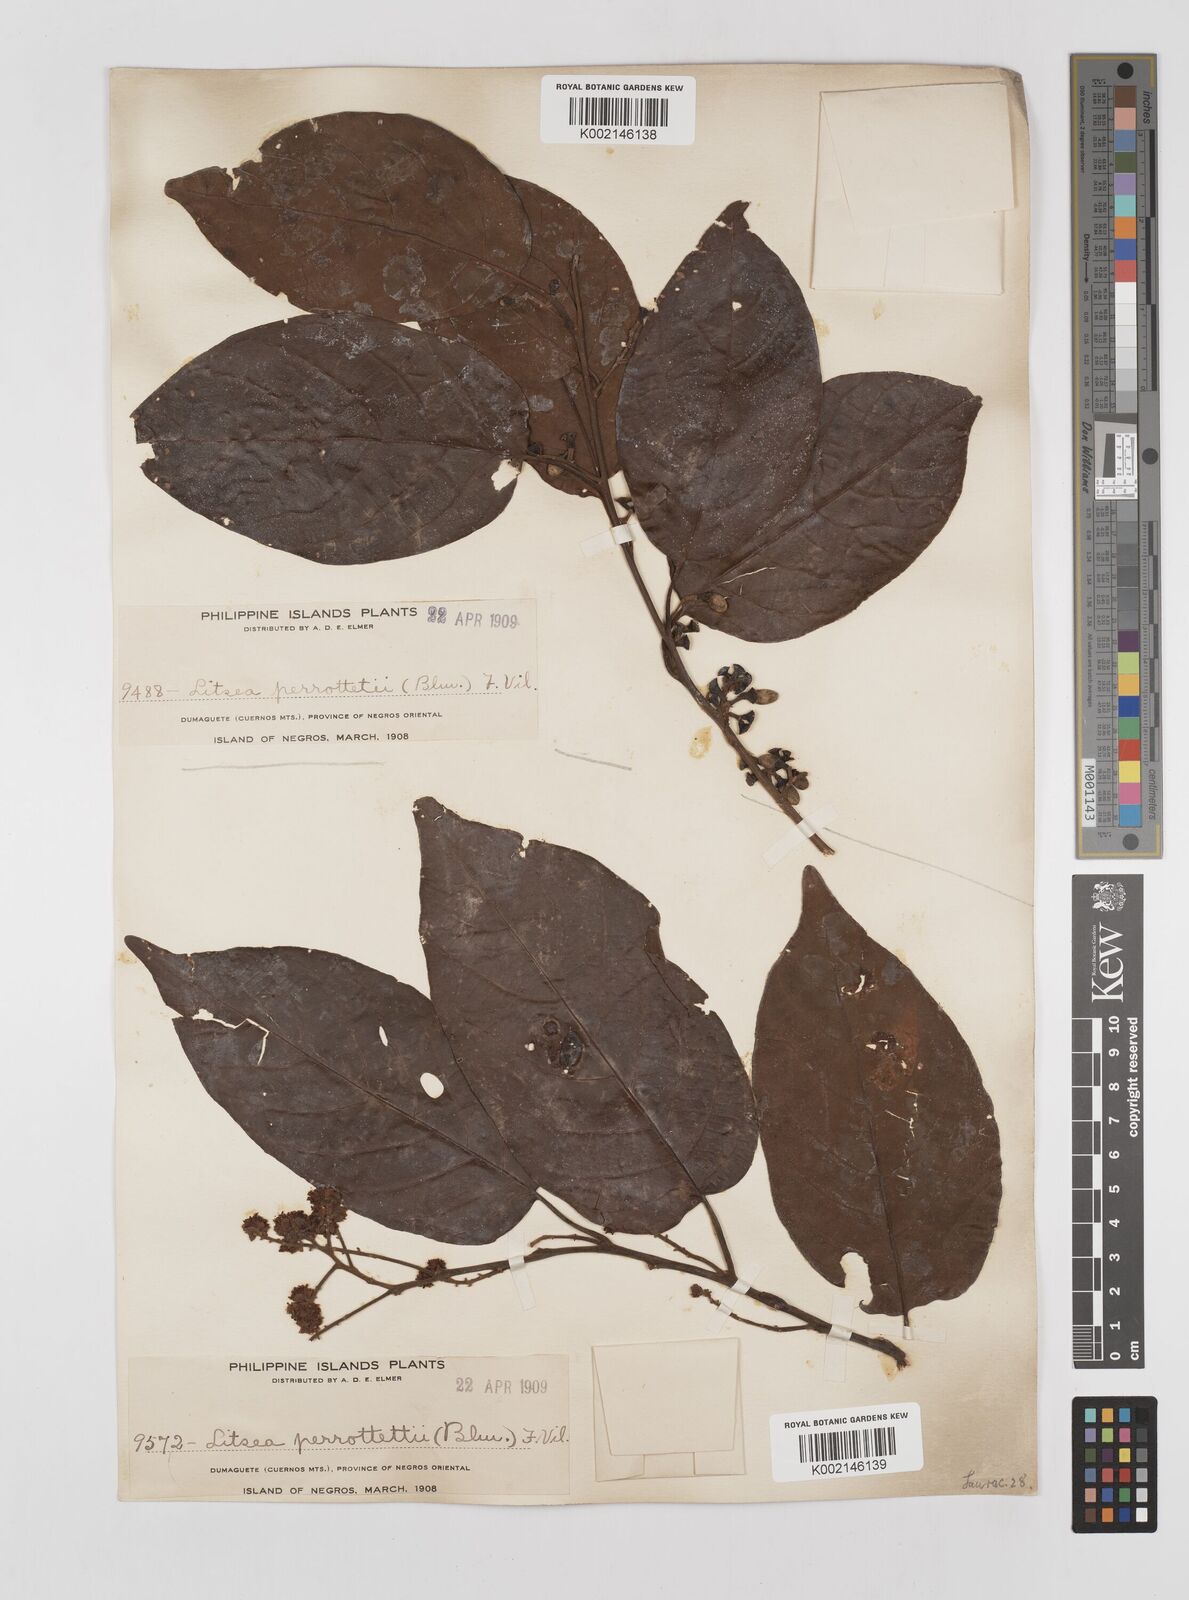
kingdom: Plantae
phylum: Tracheophyta
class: Magnoliopsida
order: Laurales
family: Lauraceae
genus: Litsea
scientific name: Litsea cordata
